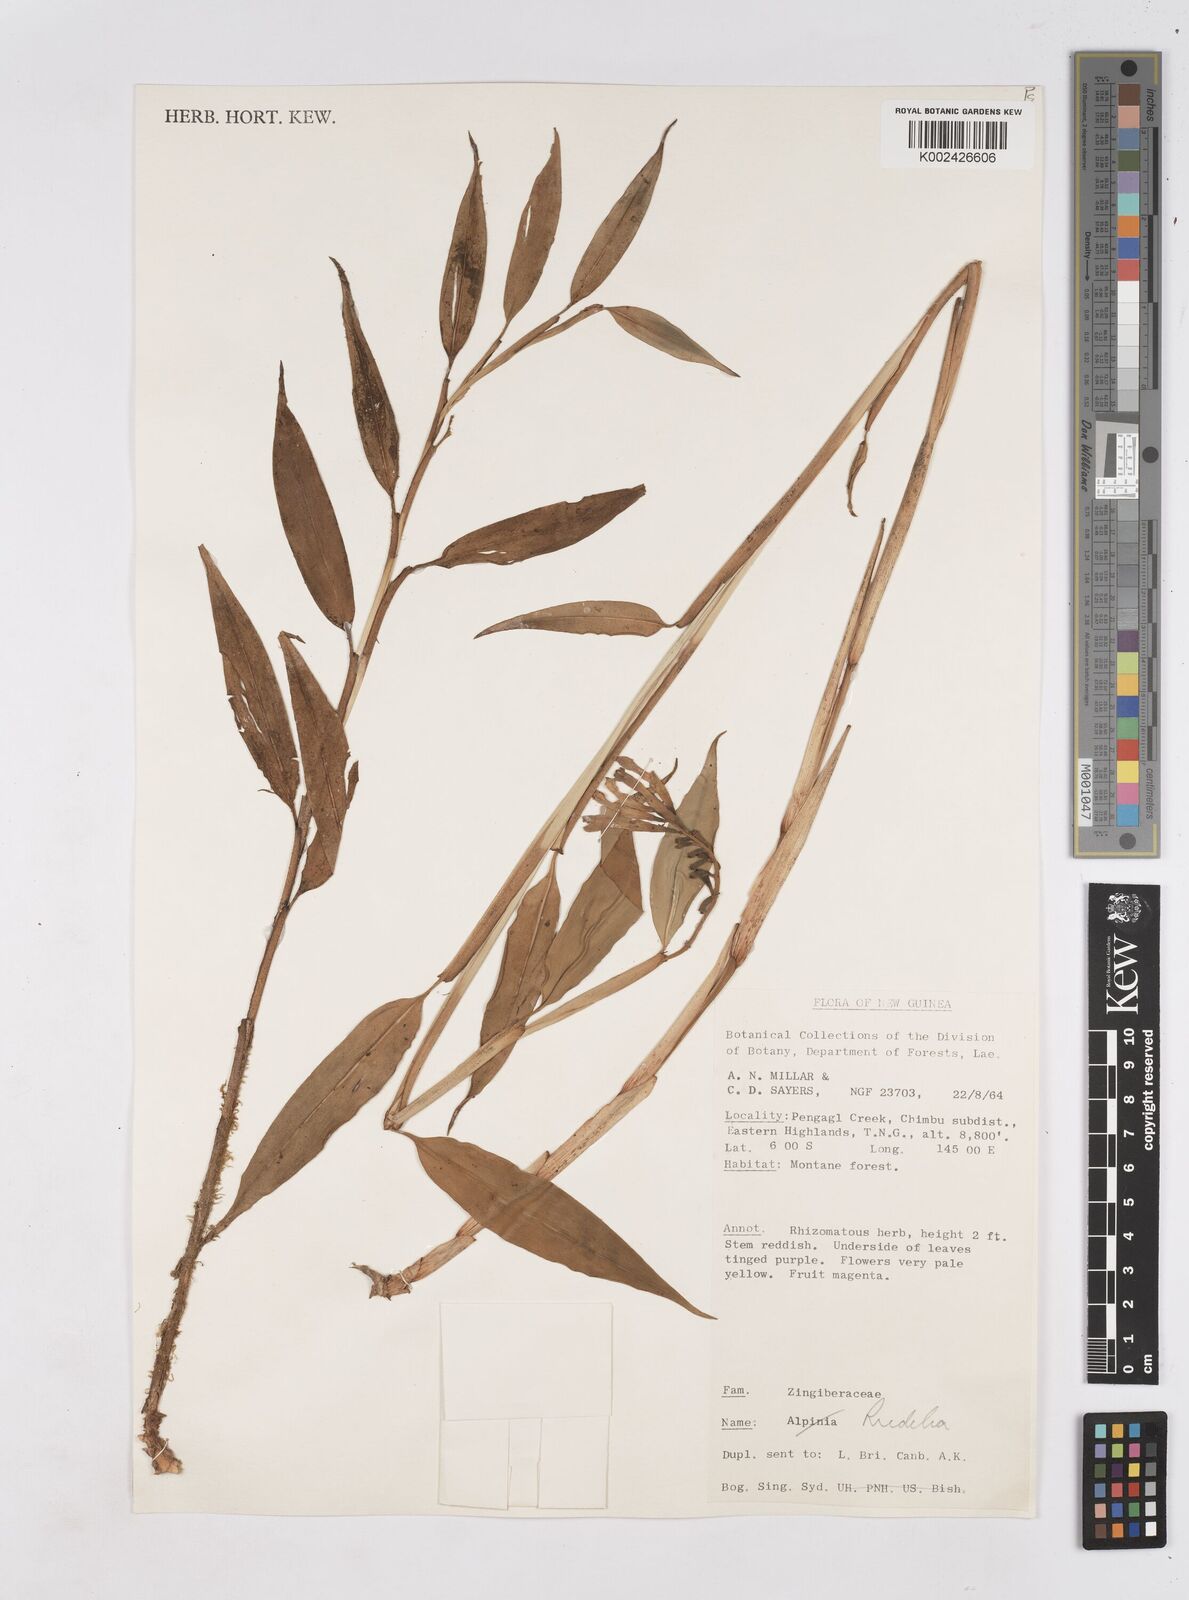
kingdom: Plantae
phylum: Tracheophyta
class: Liliopsida
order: Zingiberales
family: Zingiberaceae
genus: Riedelia
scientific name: Riedelia
